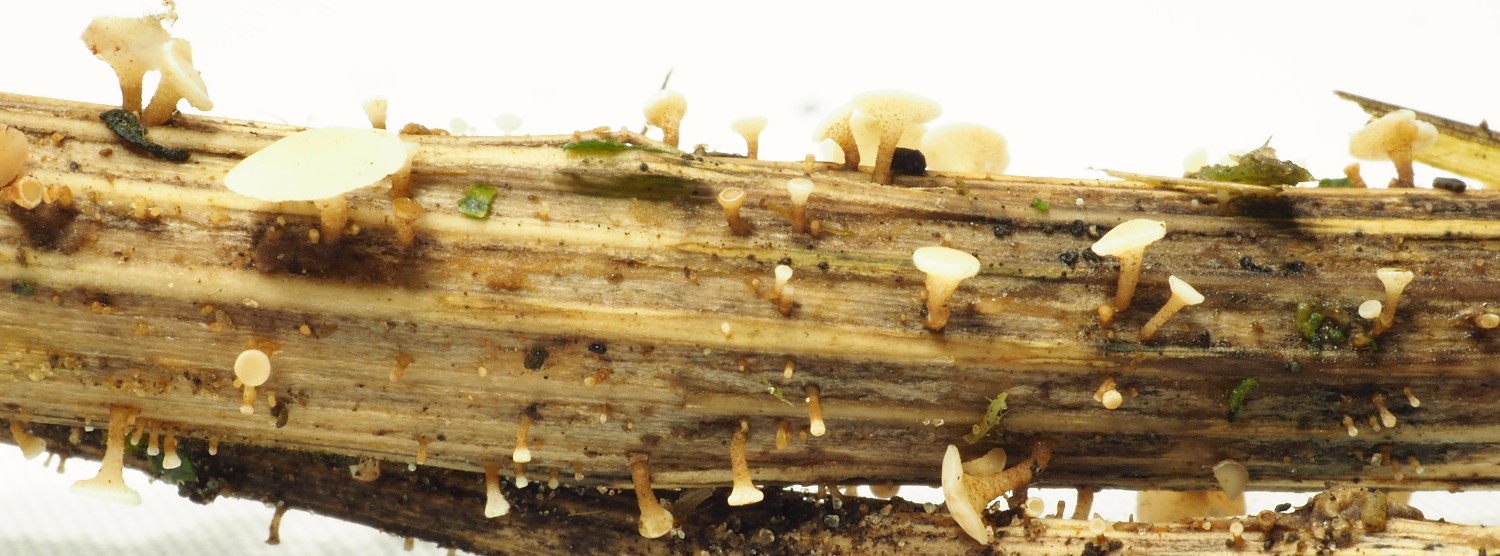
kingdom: Fungi
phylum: Ascomycota
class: Leotiomycetes
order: Helotiales
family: Helotiaceae
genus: Hymenoscyphus
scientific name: Hymenoscyphus scutula
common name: almindelig stilkskive
